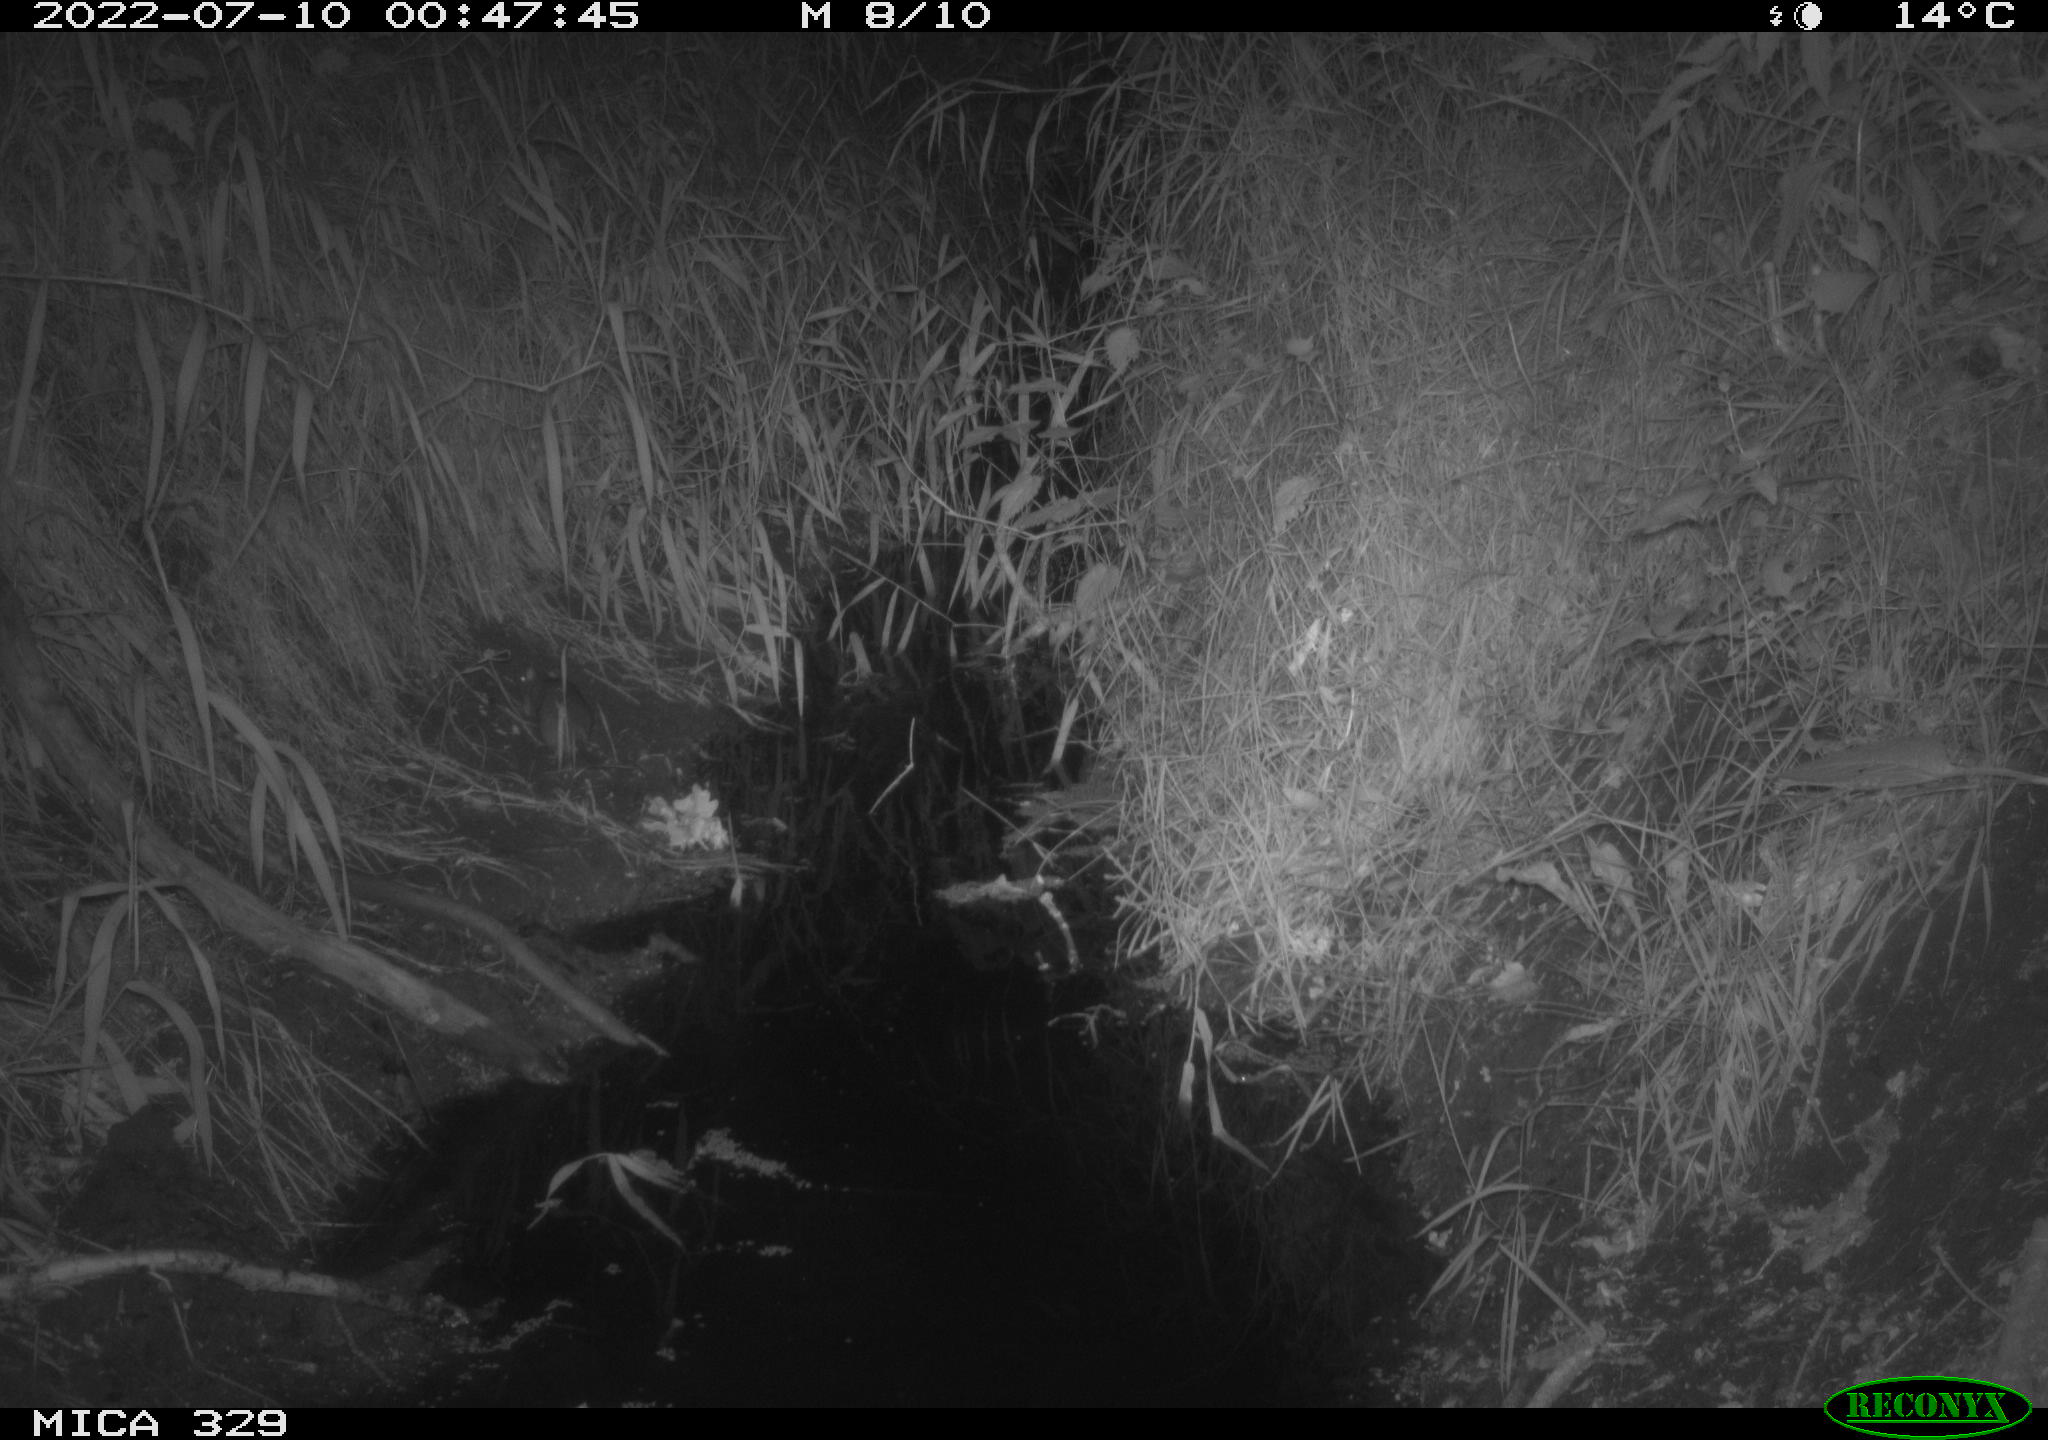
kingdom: Animalia
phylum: Chordata
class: Mammalia
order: Rodentia
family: Muridae
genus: Rattus
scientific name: Rattus norvegicus
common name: Brown rat
